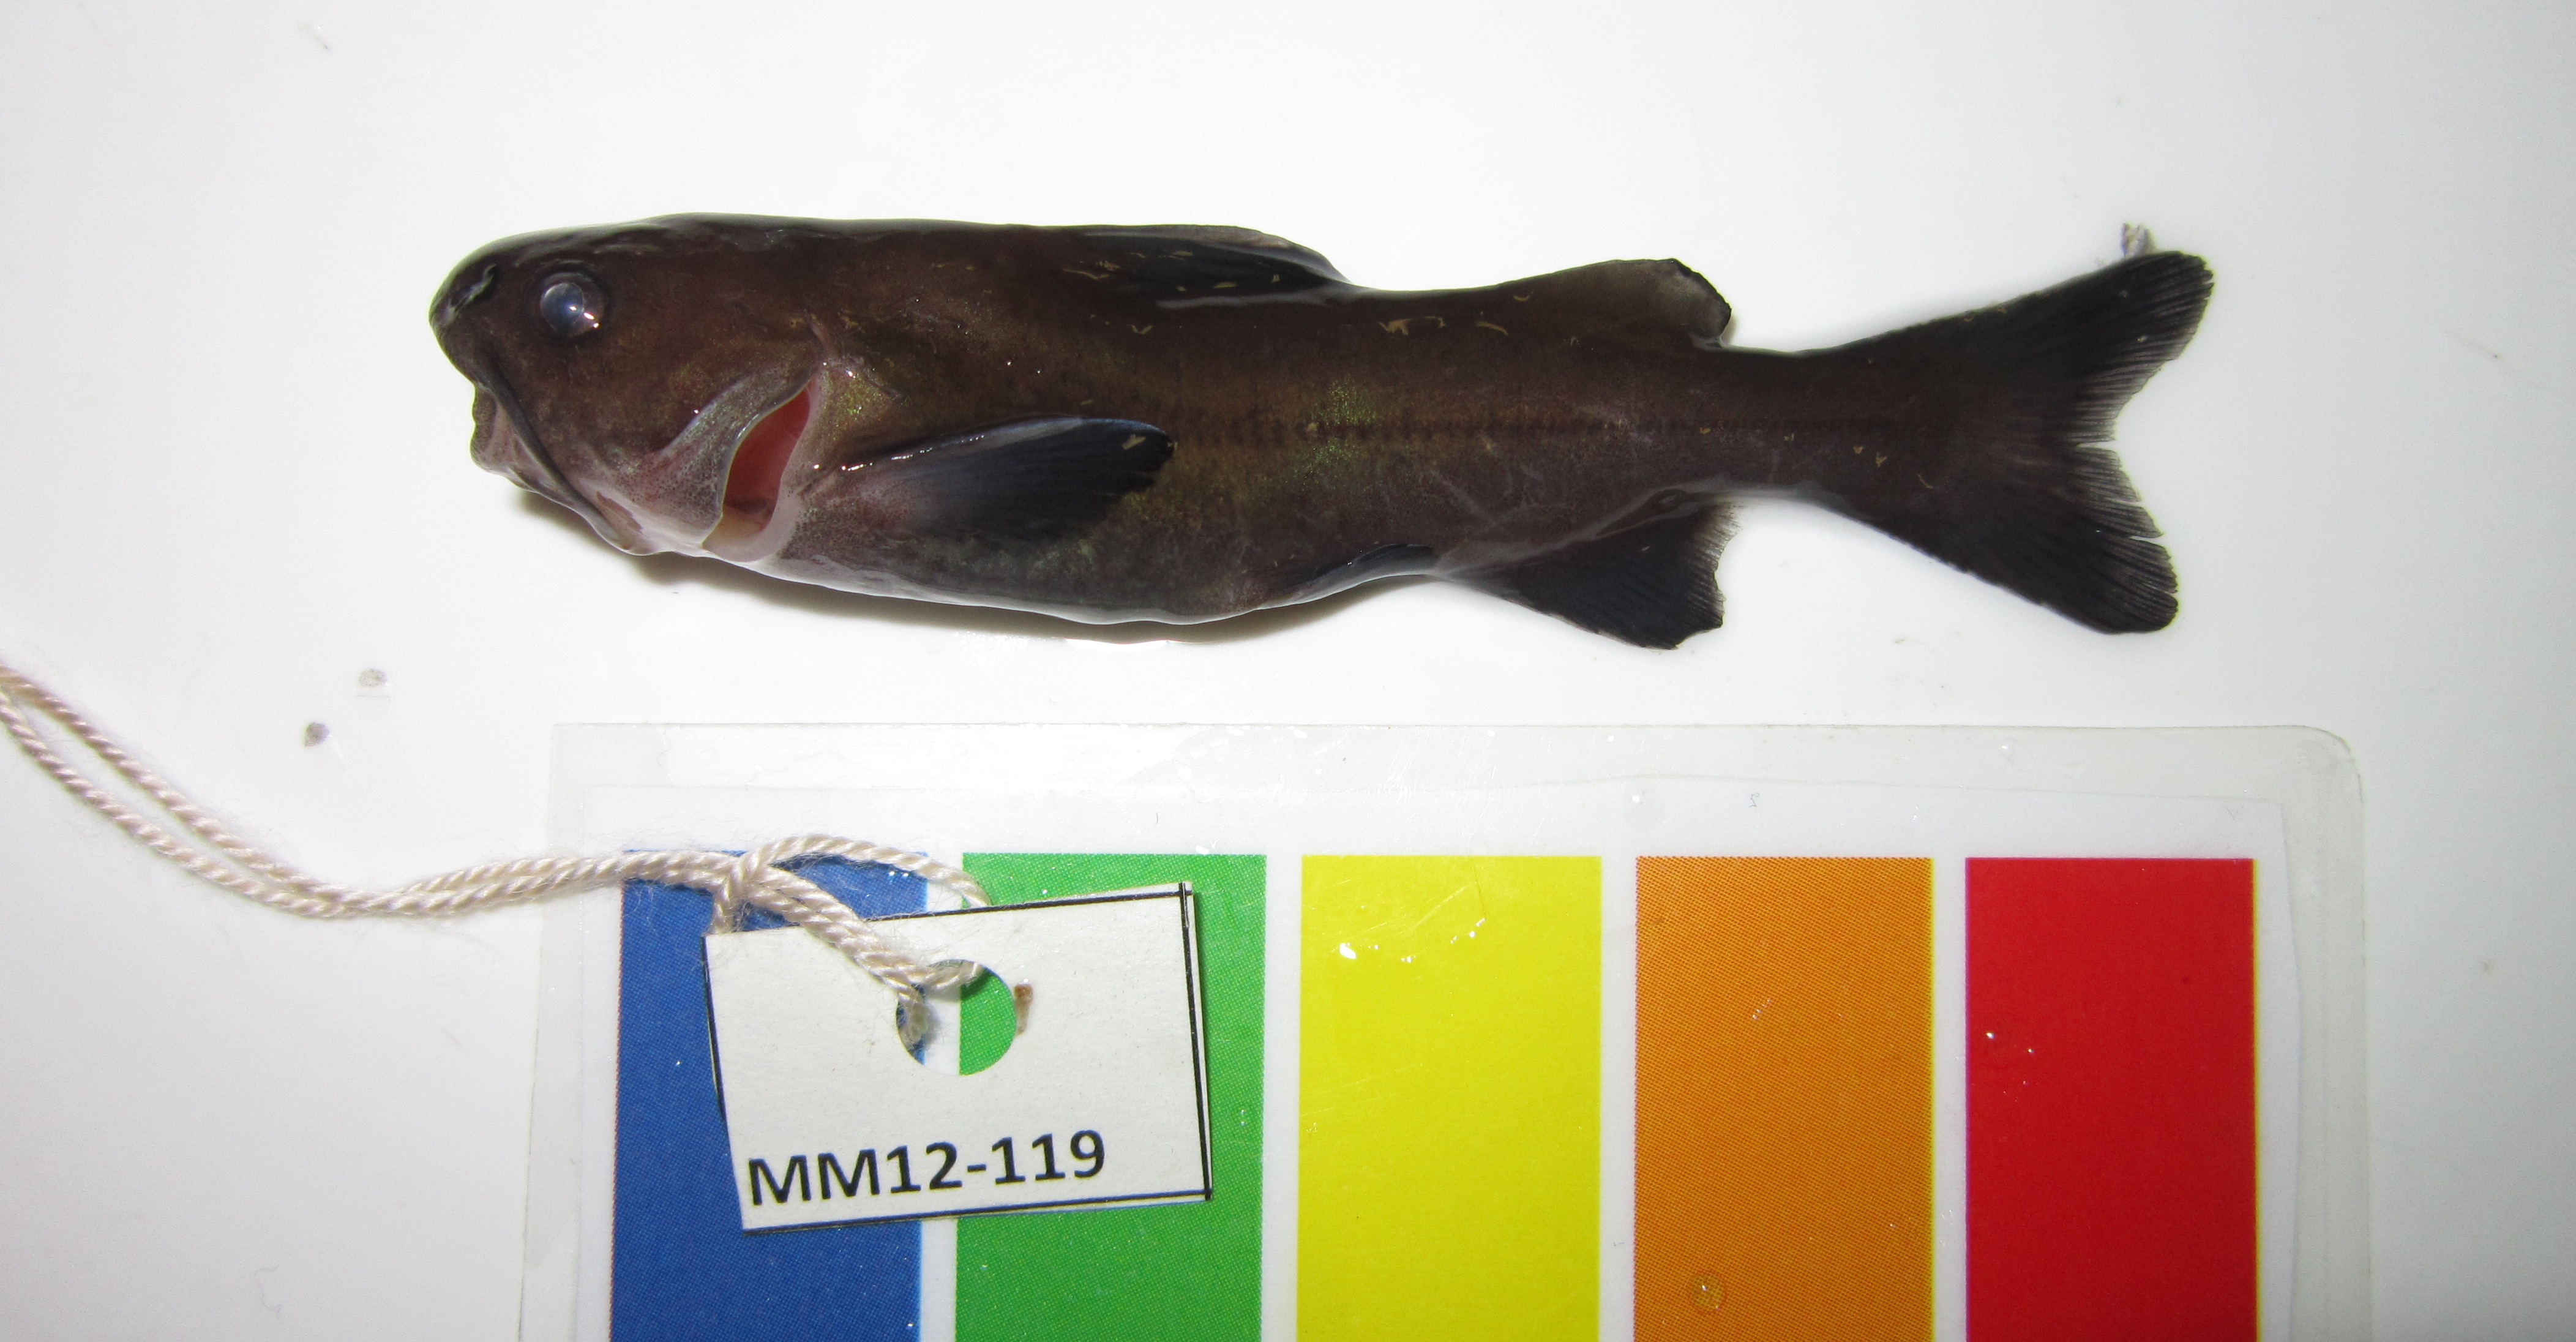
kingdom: Animalia
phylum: Chordata
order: Siluriformes
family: Ariidae
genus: Galeichthys
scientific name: Galeichthys
